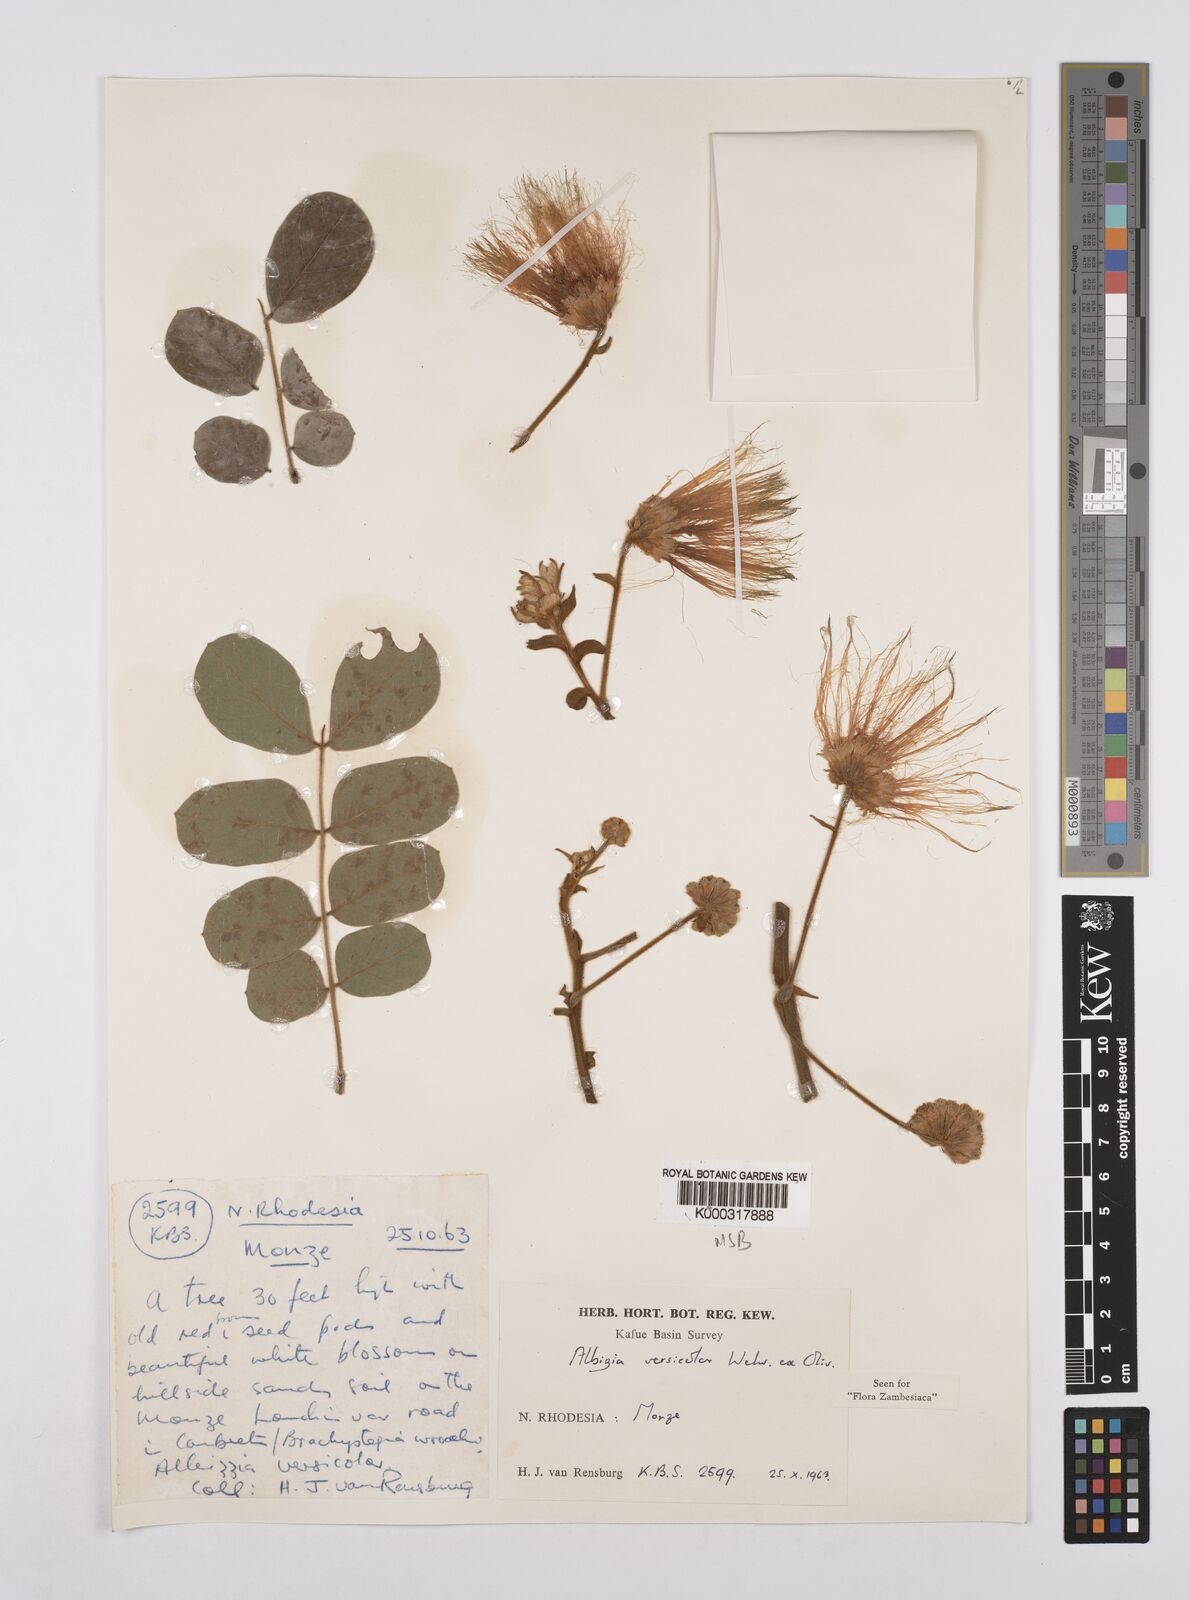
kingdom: Plantae
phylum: Tracheophyta
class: Magnoliopsida
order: Fabales
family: Fabaceae
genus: Albizia
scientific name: Albizia versicolor
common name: Poisonpod
